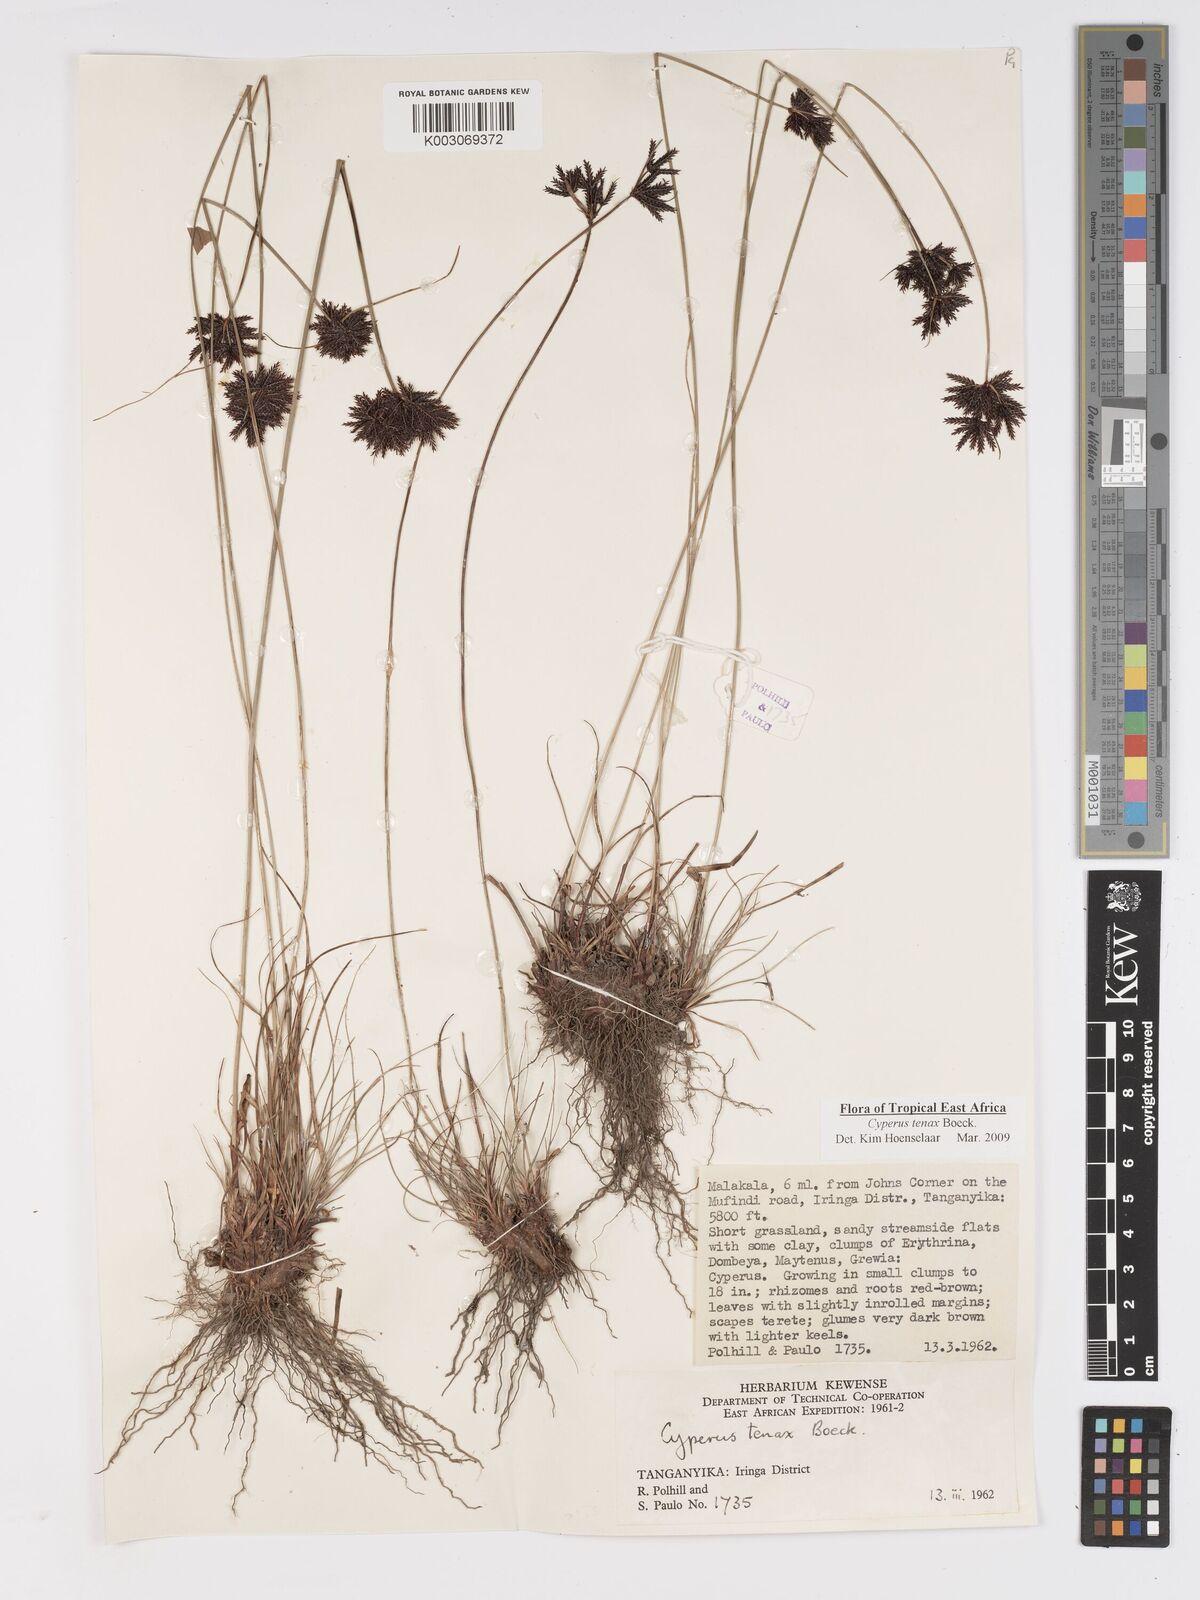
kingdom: Plantae
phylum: Tracheophyta
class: Liliopsida
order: Poales
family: Cyperaceae
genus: Cyperus
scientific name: Cyperus tenax
